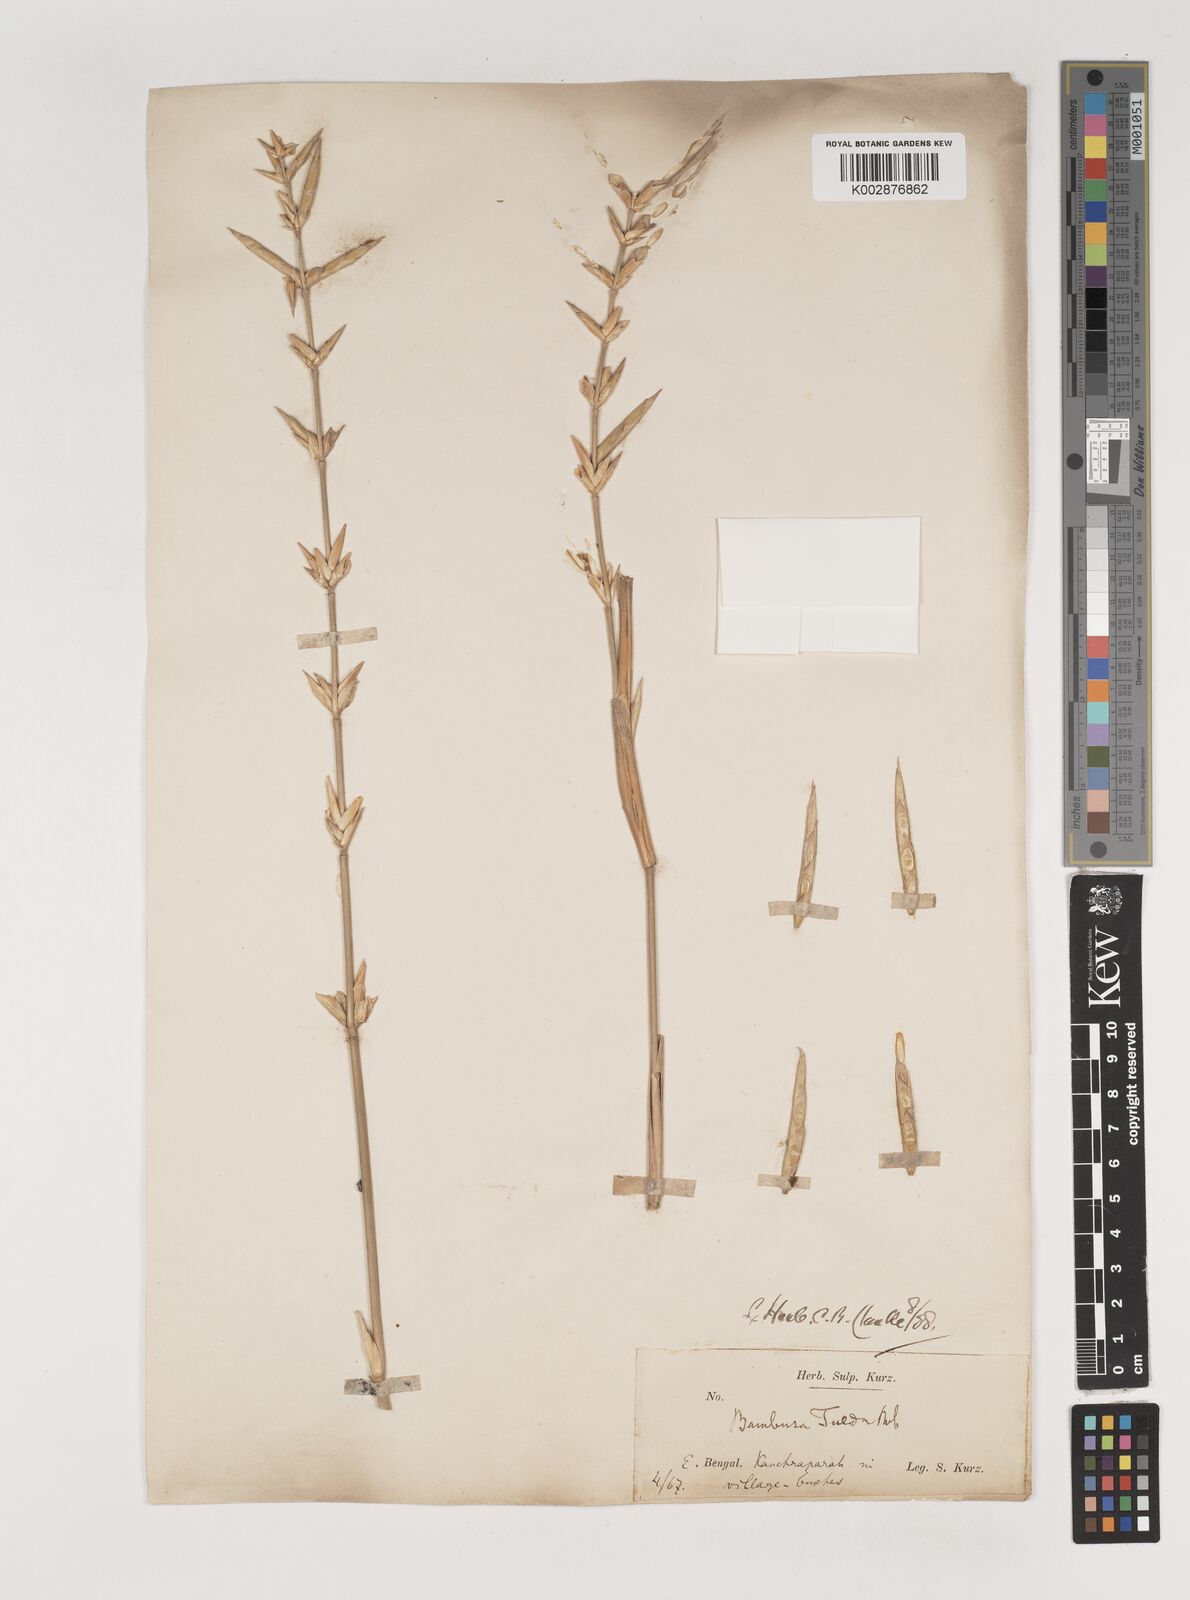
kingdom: Plantae
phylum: Tracheophyta
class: Liliopsida
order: Poales
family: Poaceae
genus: Bambusa
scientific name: Bambusa tuldoides
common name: Verdant bamboo
